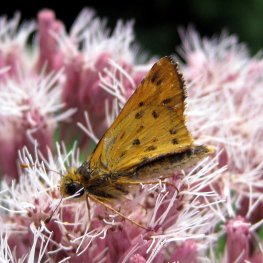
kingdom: Animalia
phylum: Arthropoda
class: Insecta
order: Lepidoptera
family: Hesperiidae
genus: Hylephila
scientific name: Hylephila phyleus
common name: Fiery Skipper
